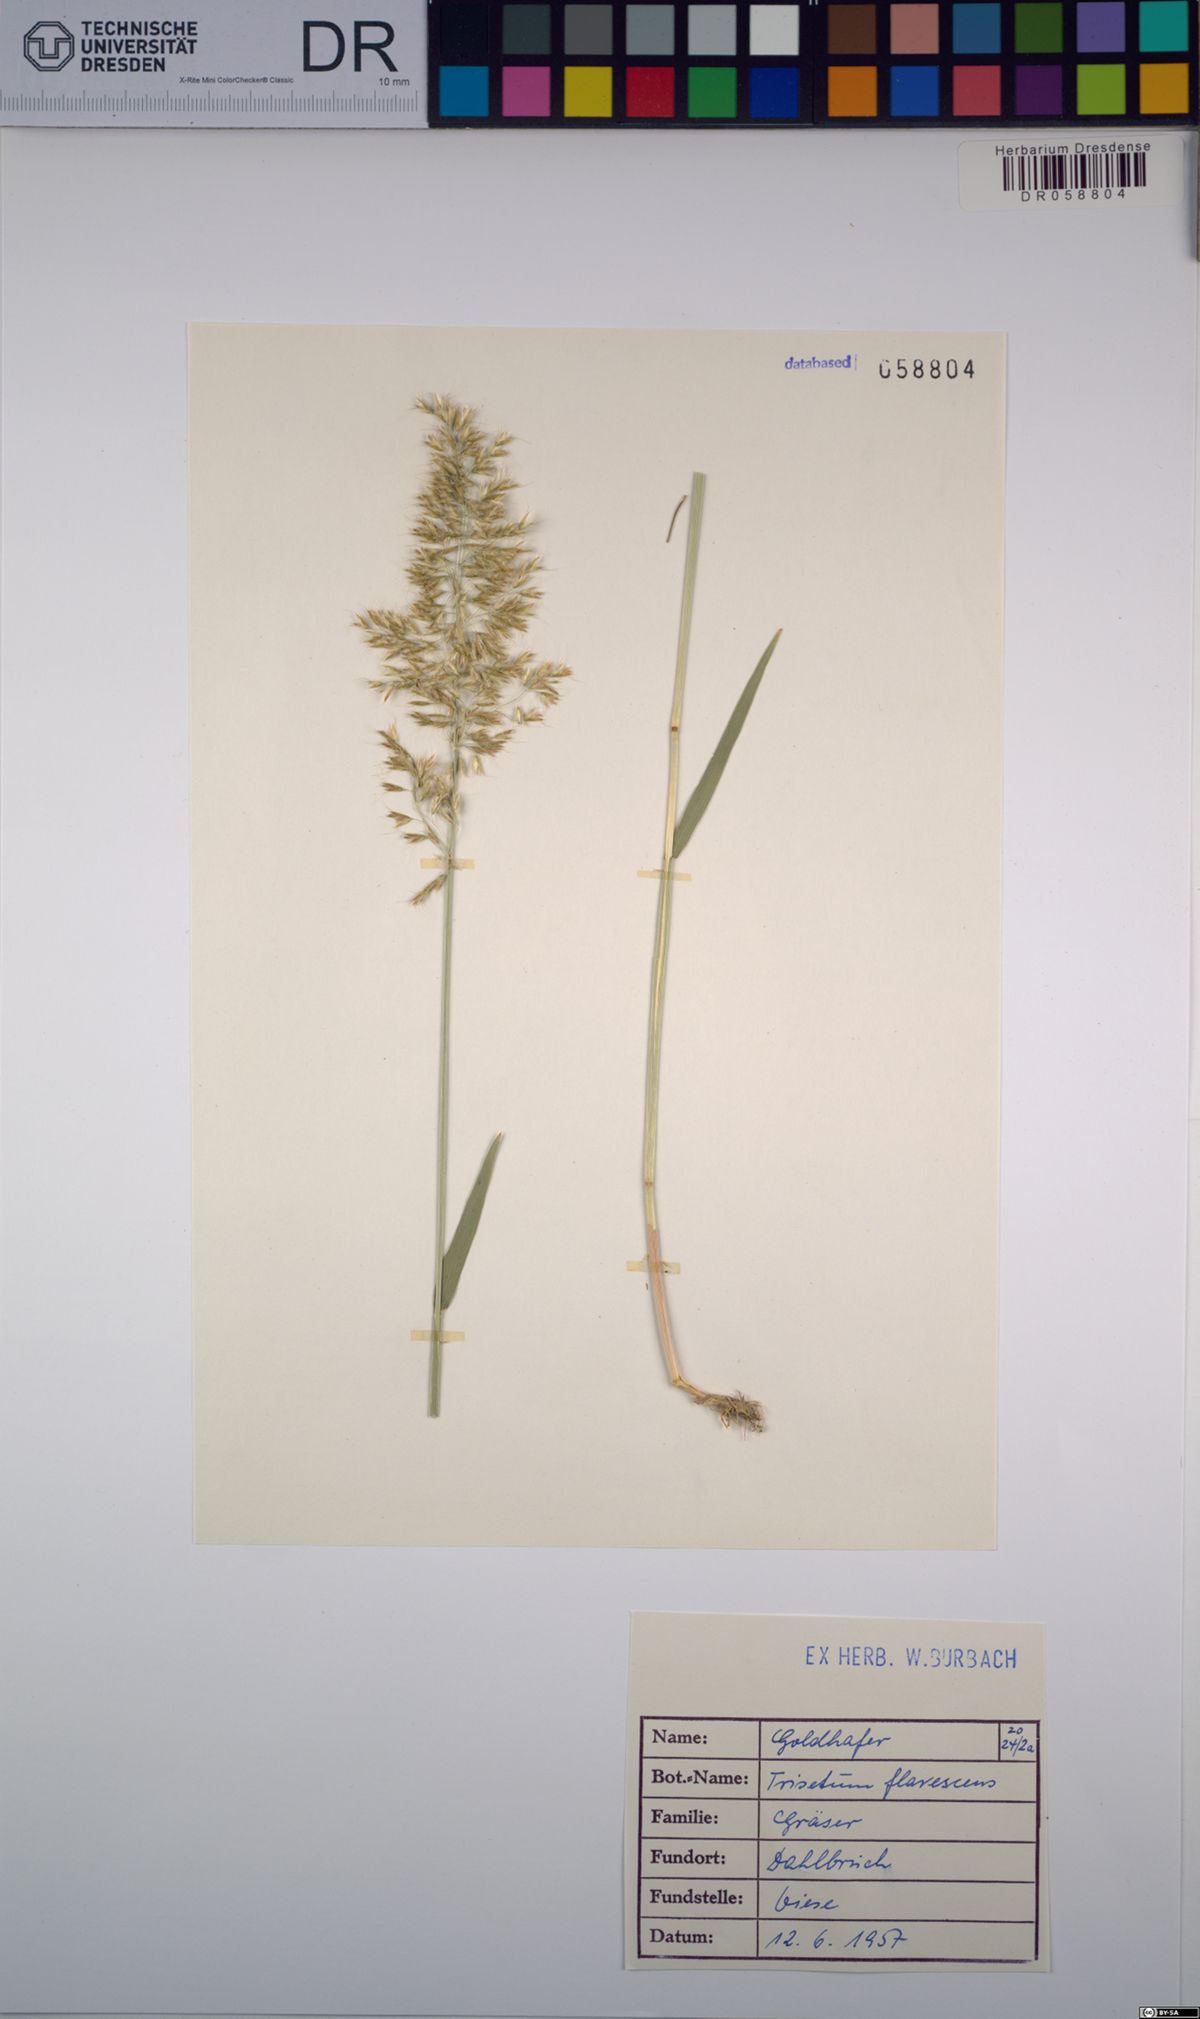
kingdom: Plantae
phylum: Tracheophyta
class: Liliopsida
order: Poales
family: Poaceae
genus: Trisetum
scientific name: Trisetum flavescens
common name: Yellow oat-grass
